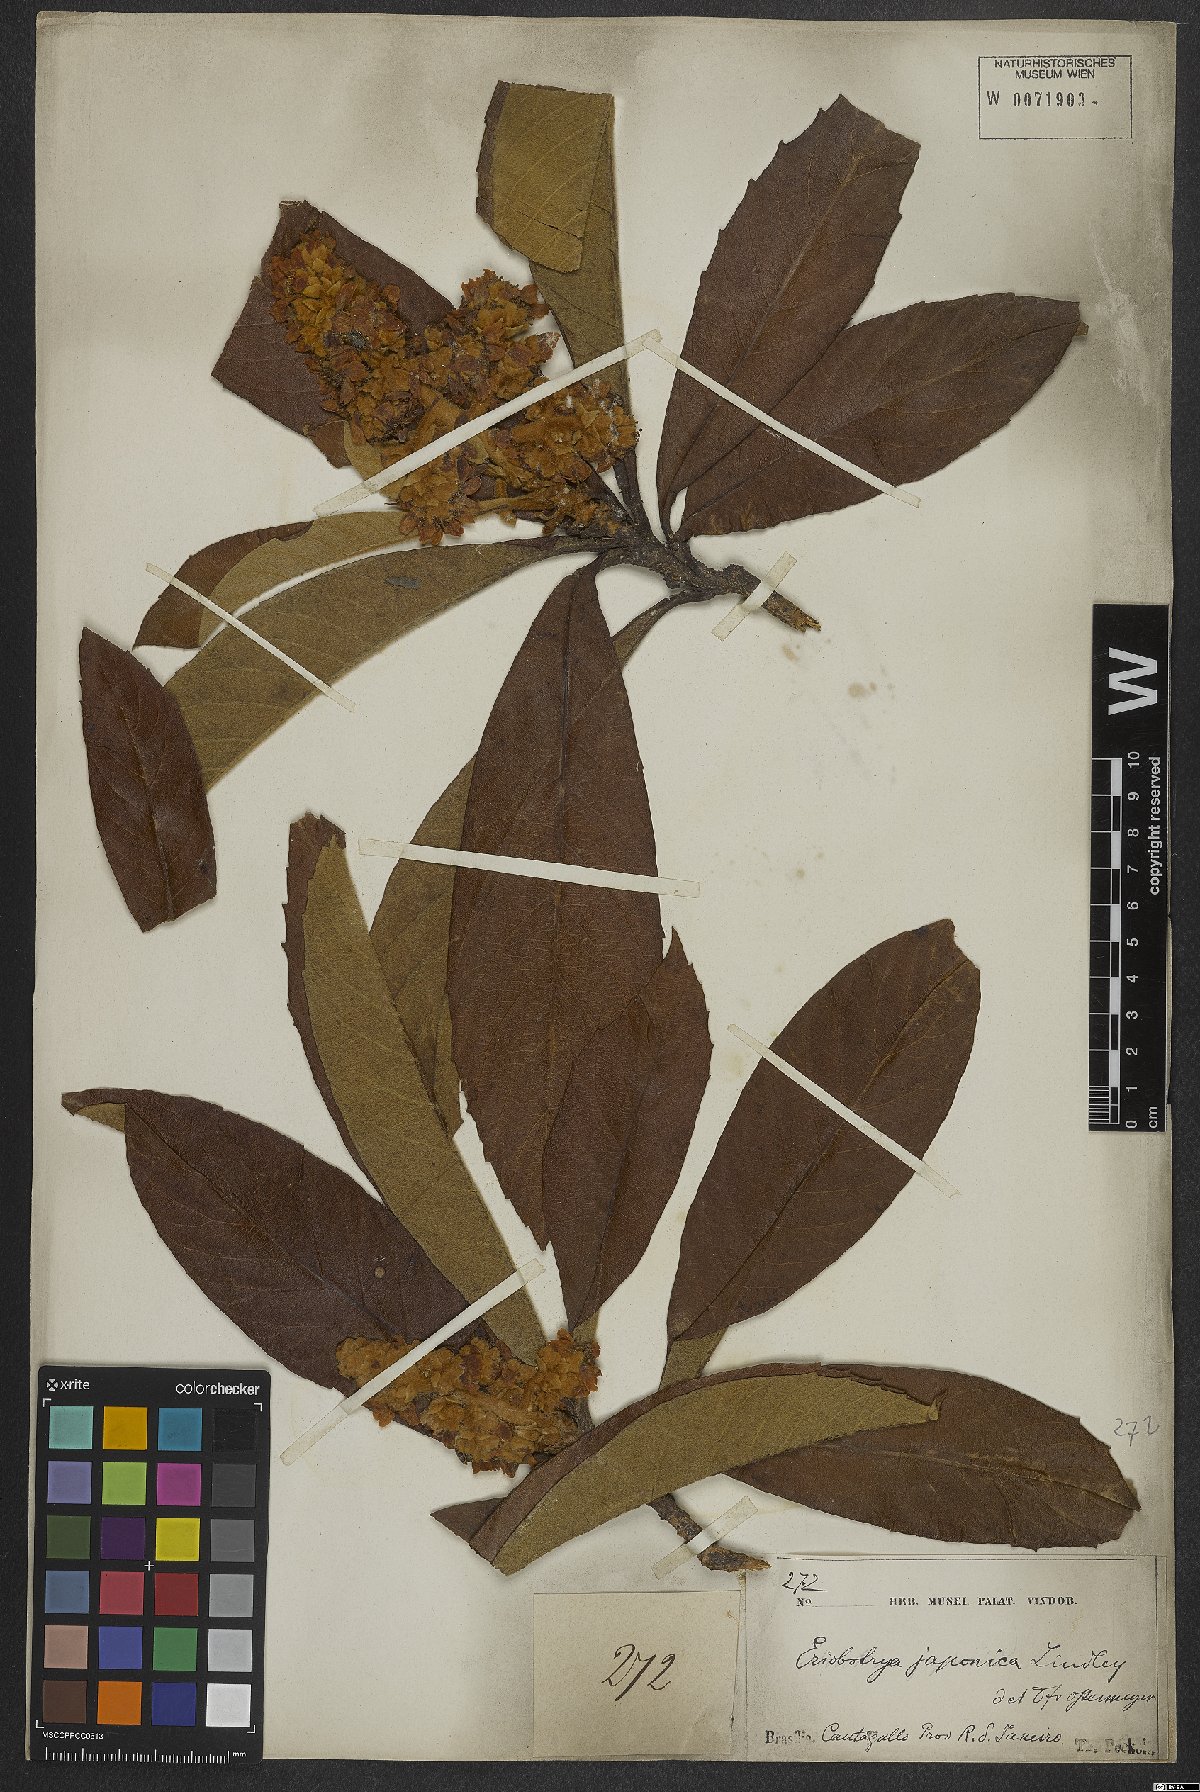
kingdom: Plantae
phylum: Tracheophyta
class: Magnoliopsida
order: Rosales
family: Rosaceae
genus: Rhaphiolepis
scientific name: Rhaphiolepis bibas
